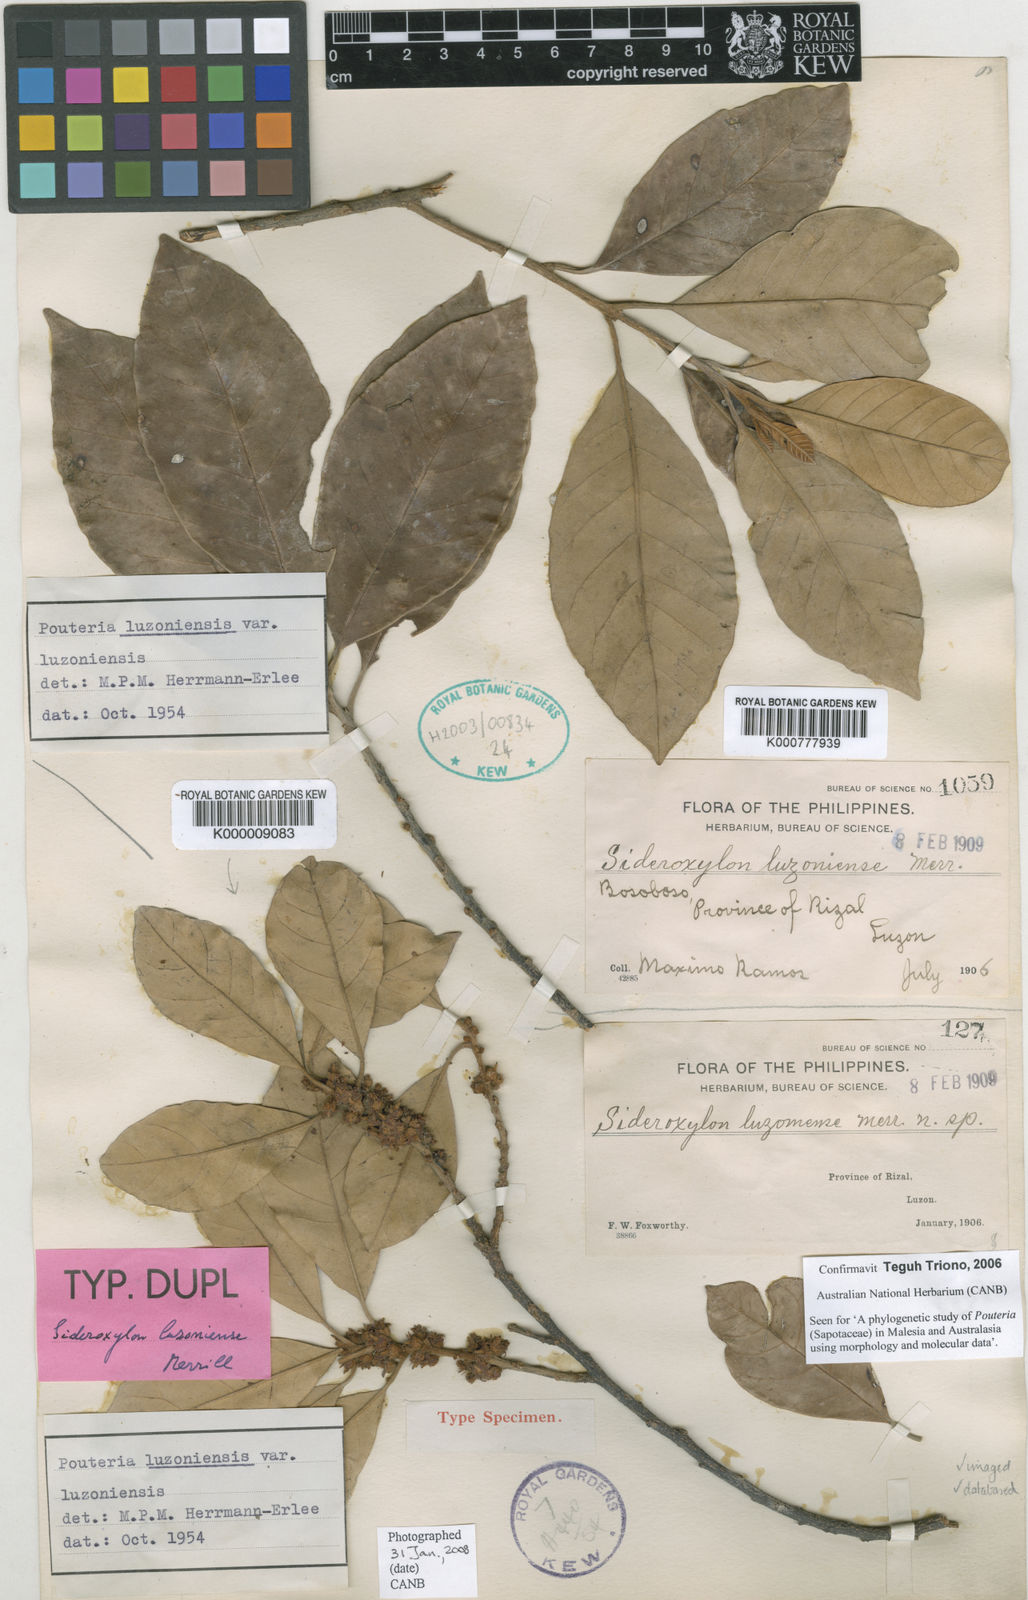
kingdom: Plantae
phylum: Tracheophyta
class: Magnoliopsida
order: Ericales
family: Sapotaceae
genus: Sersalisia
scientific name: Sersalisia luzoniensis
